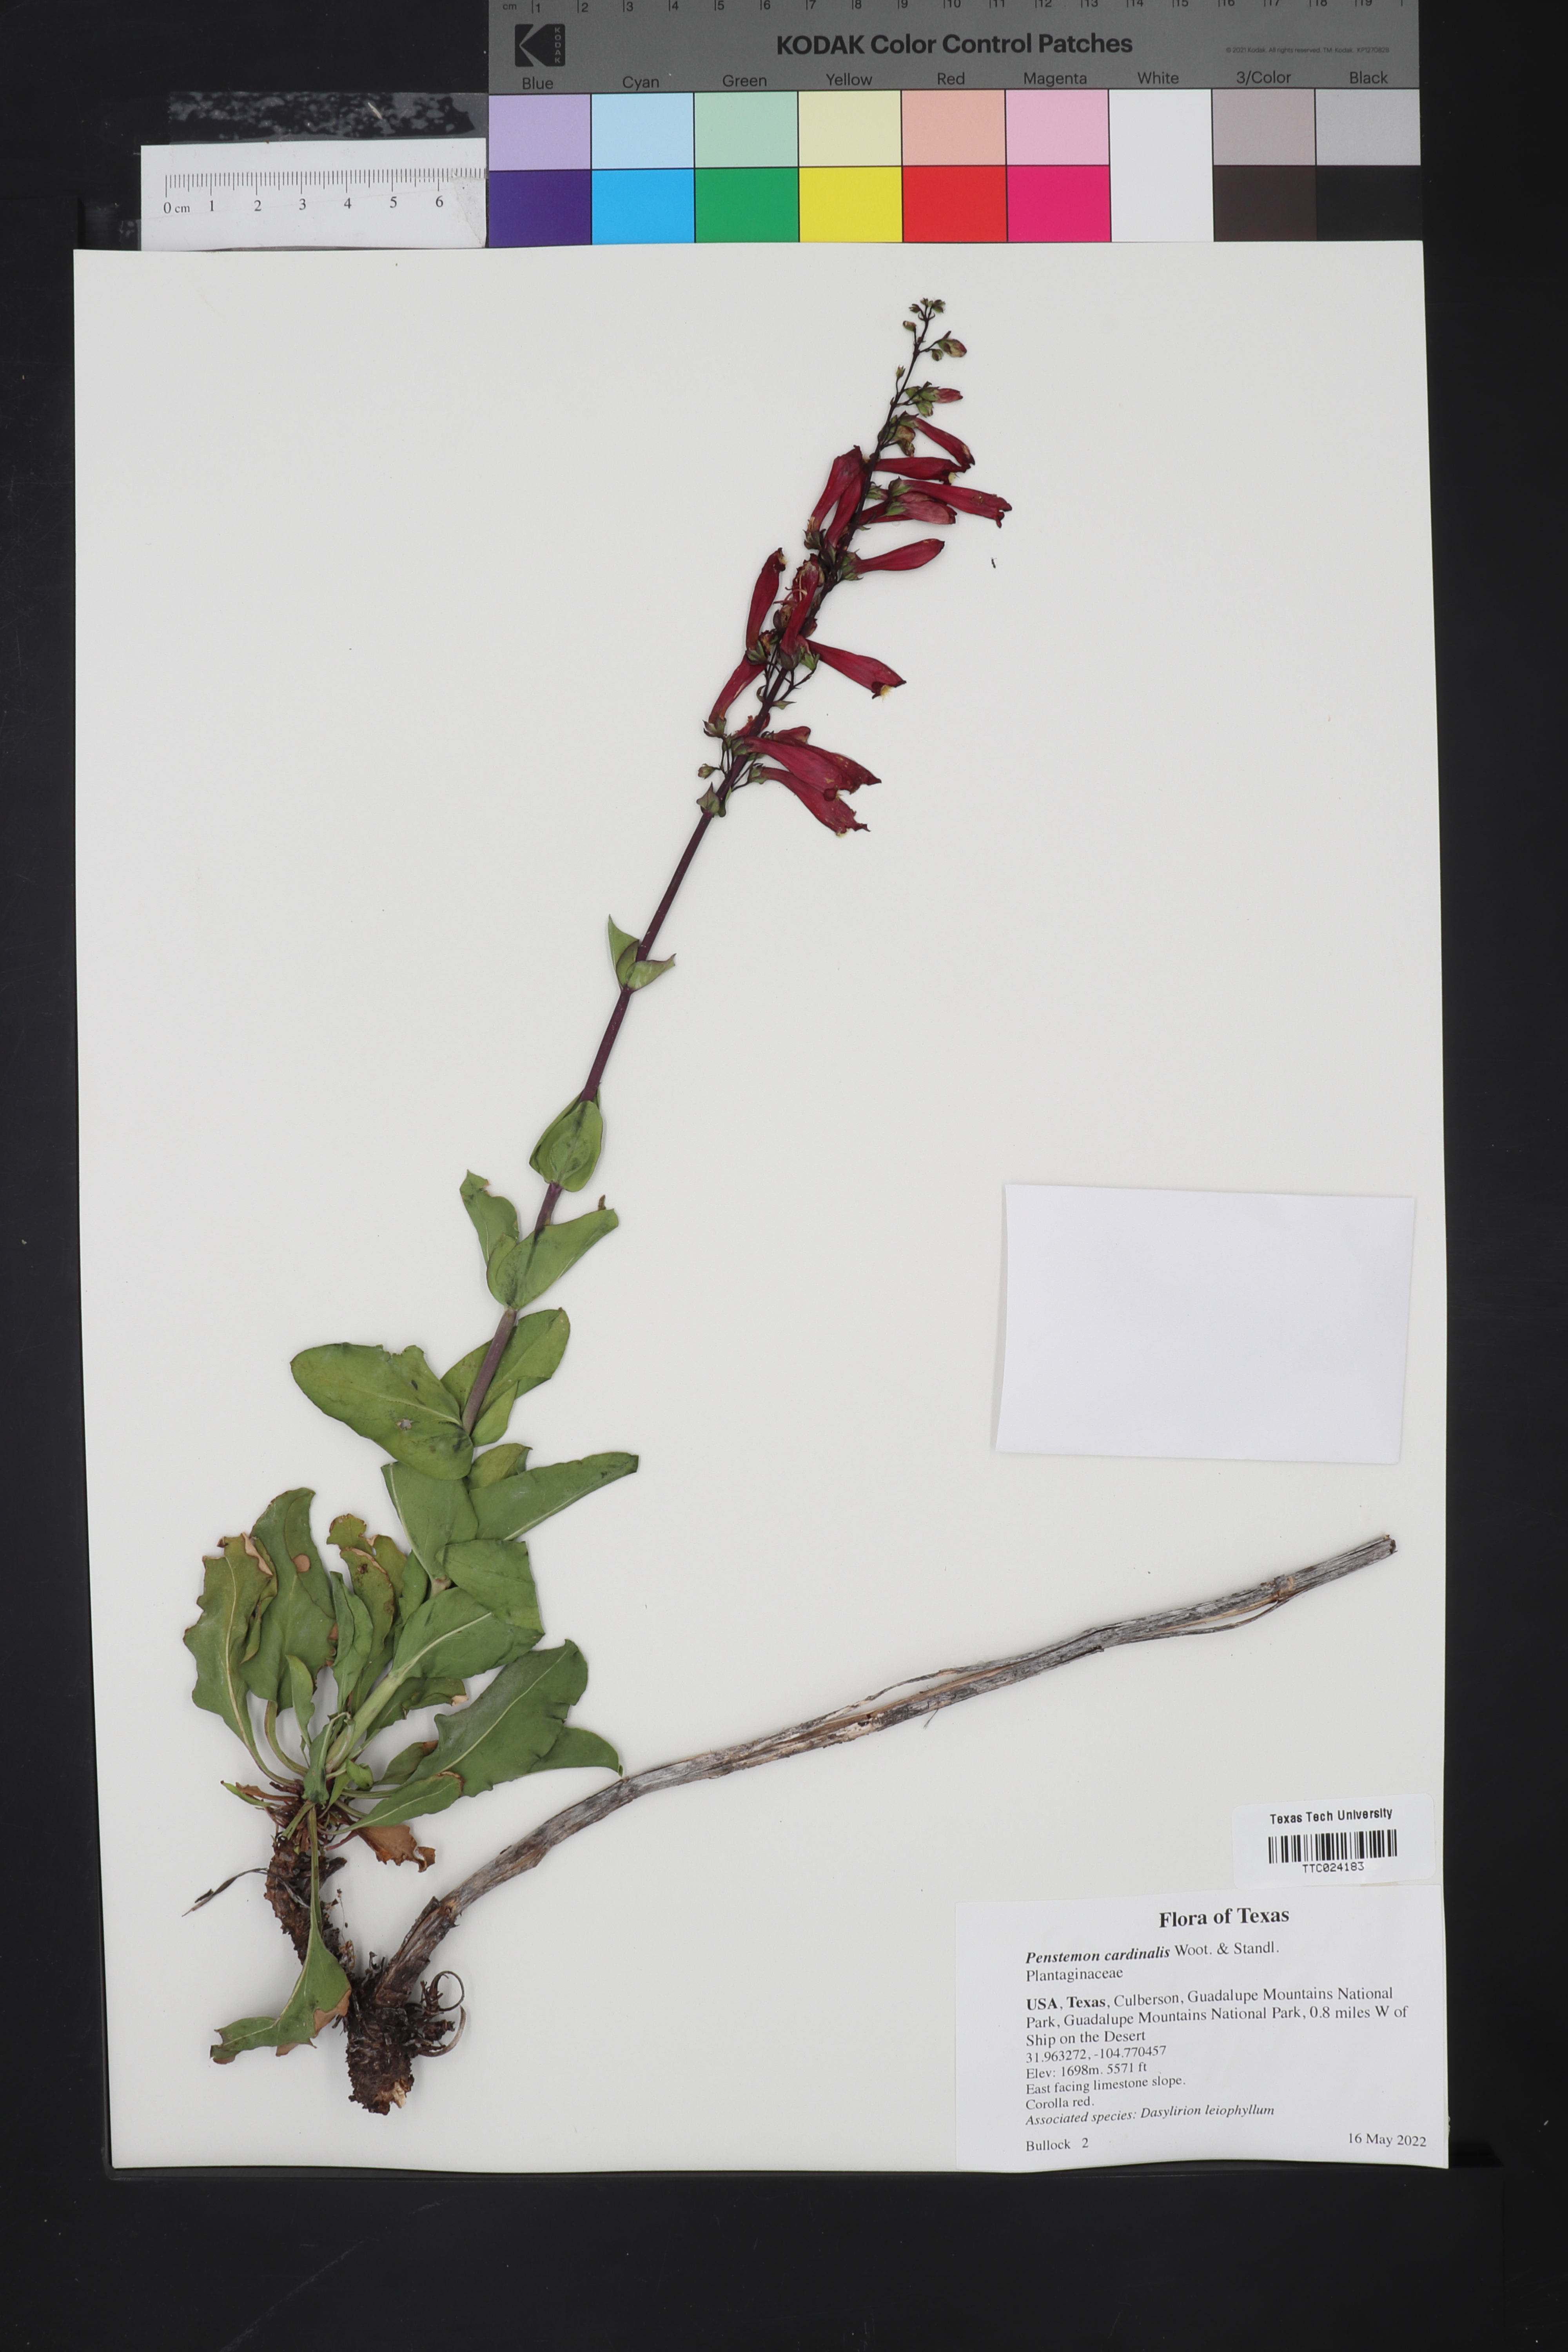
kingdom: Plantae
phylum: Tracheophyta
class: Magnoliopsida
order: Lamiales
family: Plantaginaceae
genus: Penstemon
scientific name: Penstemon cardinalis
